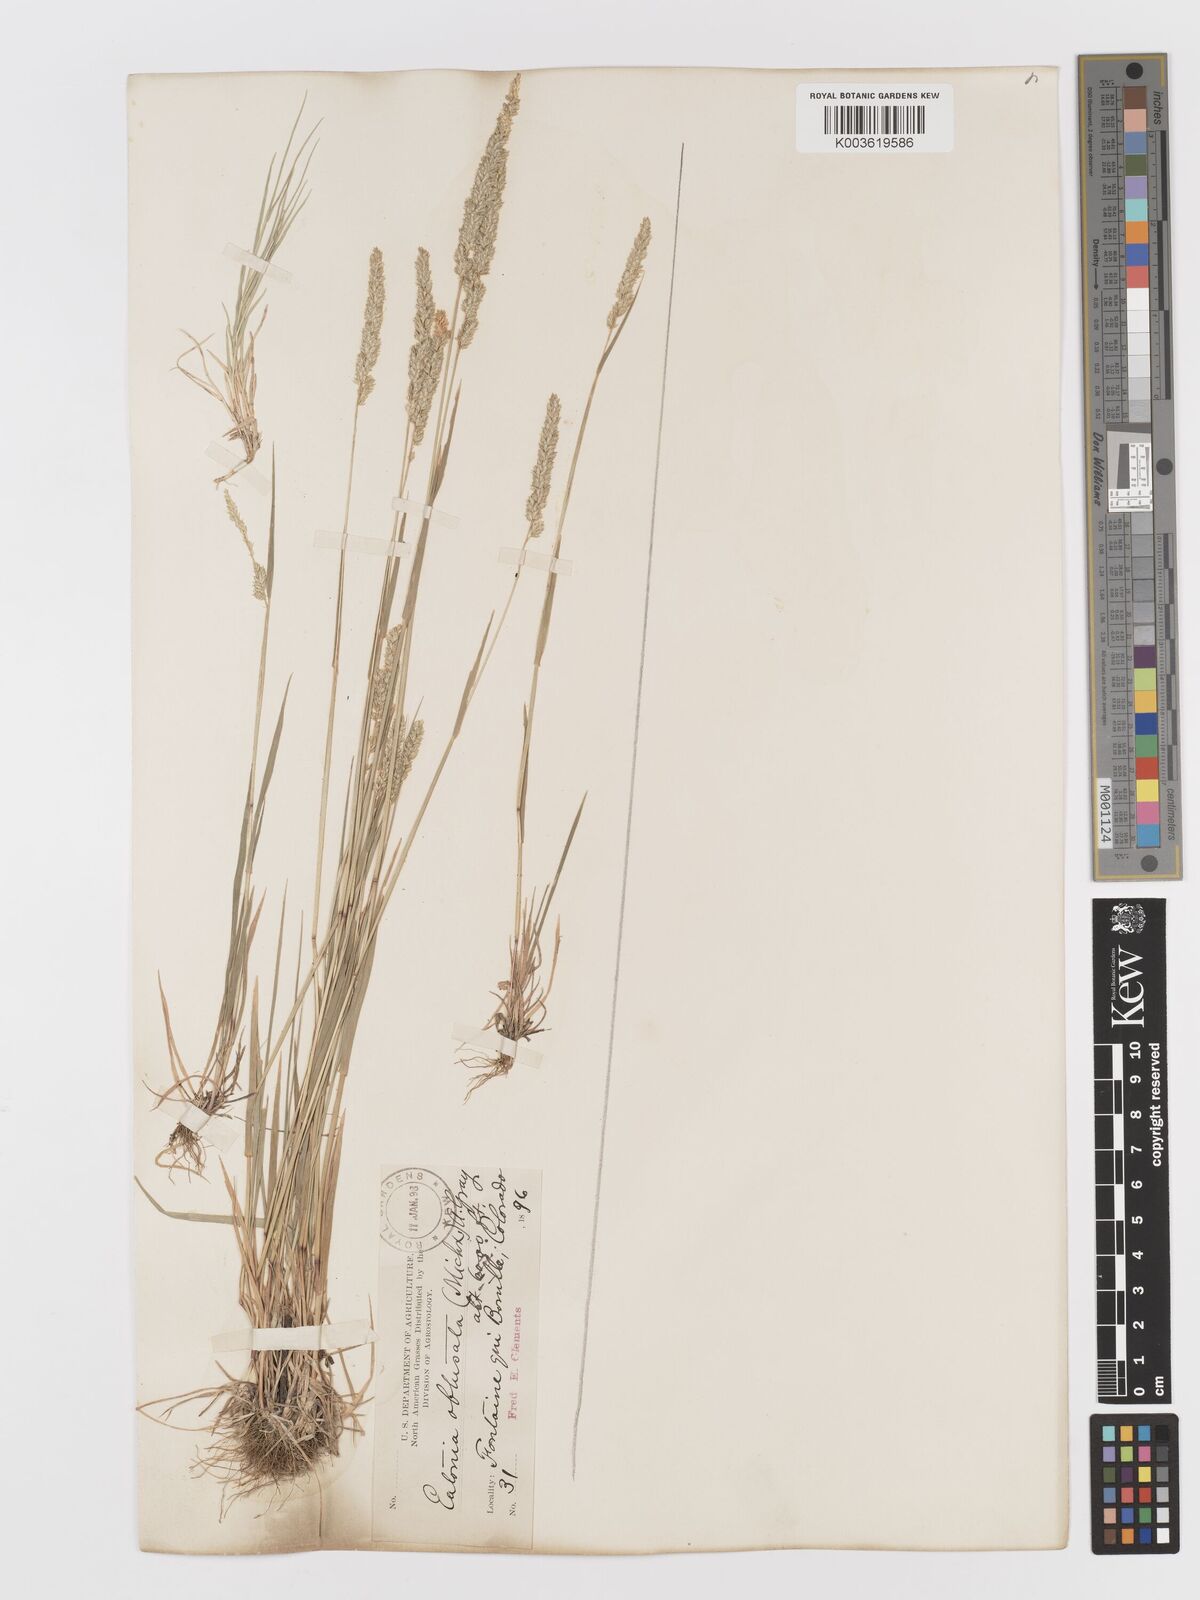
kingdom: Plantae
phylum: Tracheophyta
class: Liliopsida
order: Poales
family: Poaceae
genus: Sphenopholis
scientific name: Sphenopholis obtusata
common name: Prairie grass
